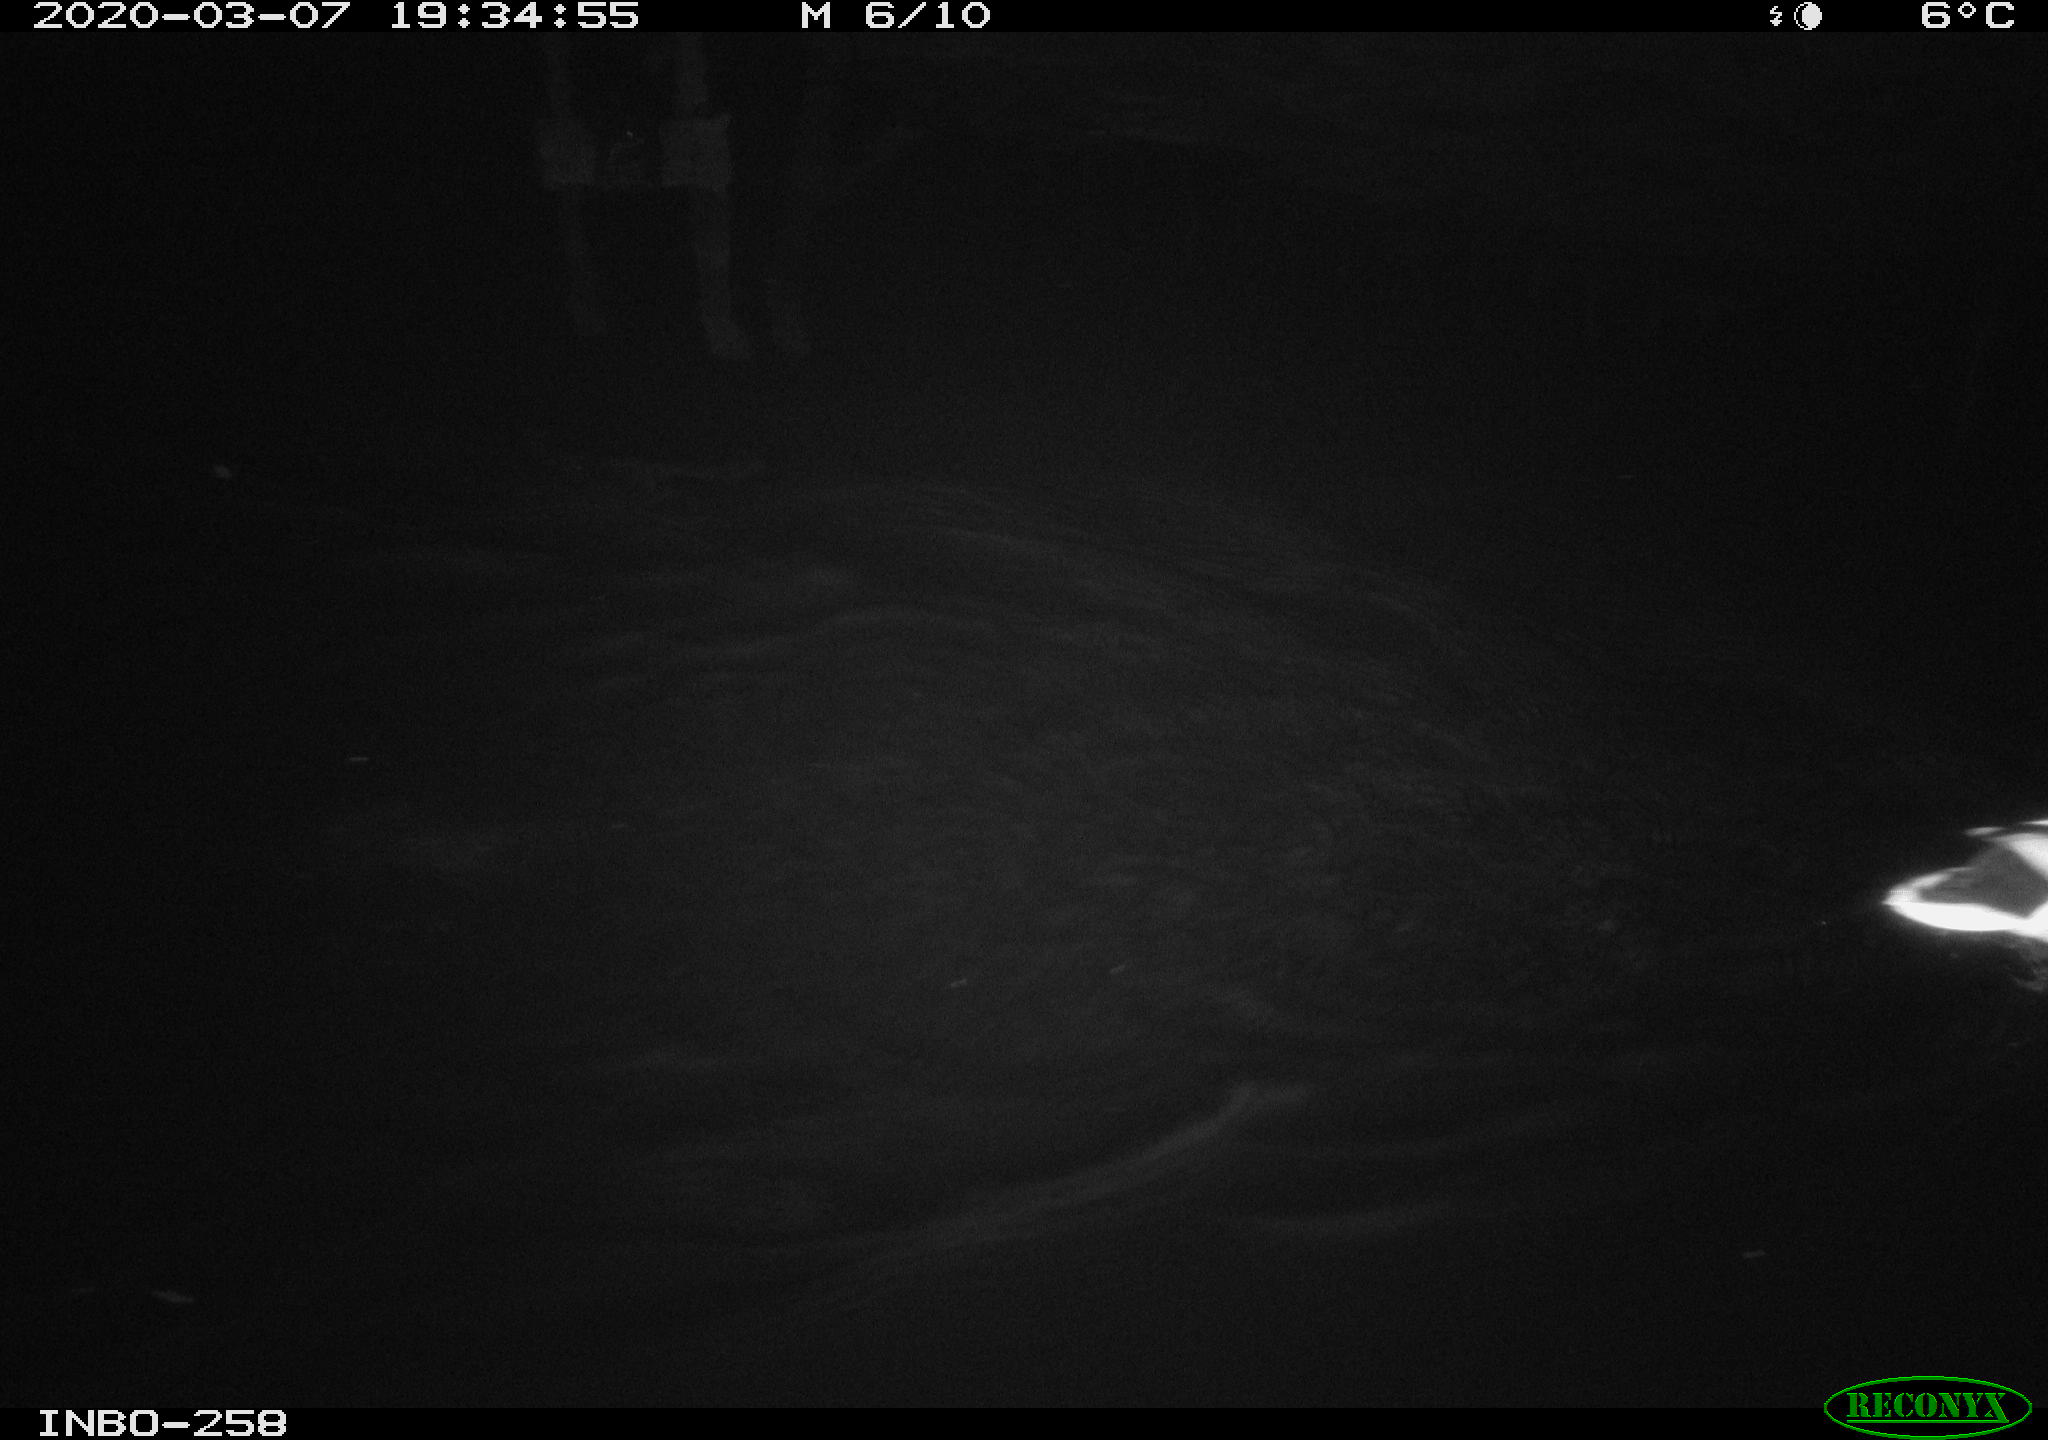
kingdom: Animalia
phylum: Chordata
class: Aves
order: Anseriformes
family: Anatidae
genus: Anas
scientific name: Anas platyrhynchos
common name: Mallard
